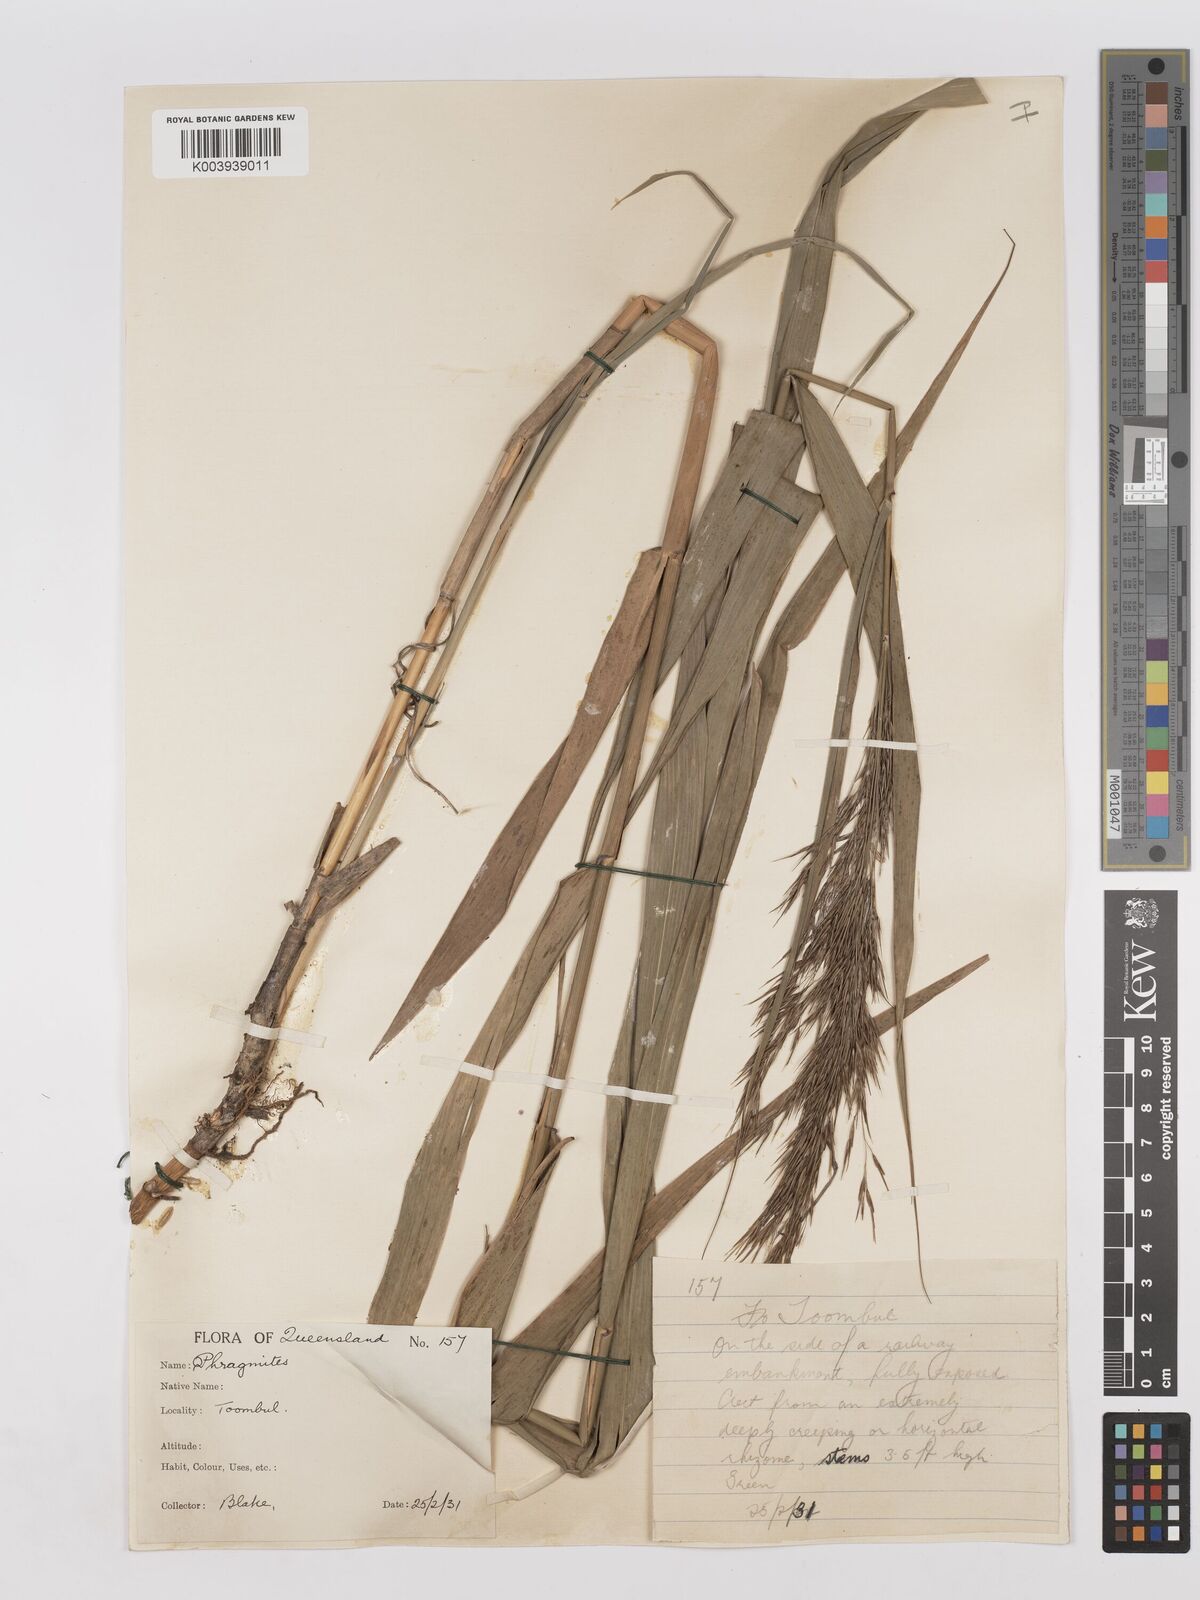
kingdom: Plantae
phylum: Tracheophyta
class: Liliopsida
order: Poales
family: Poaceae
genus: Phragmites
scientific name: Phragmites australis
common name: Common reed
